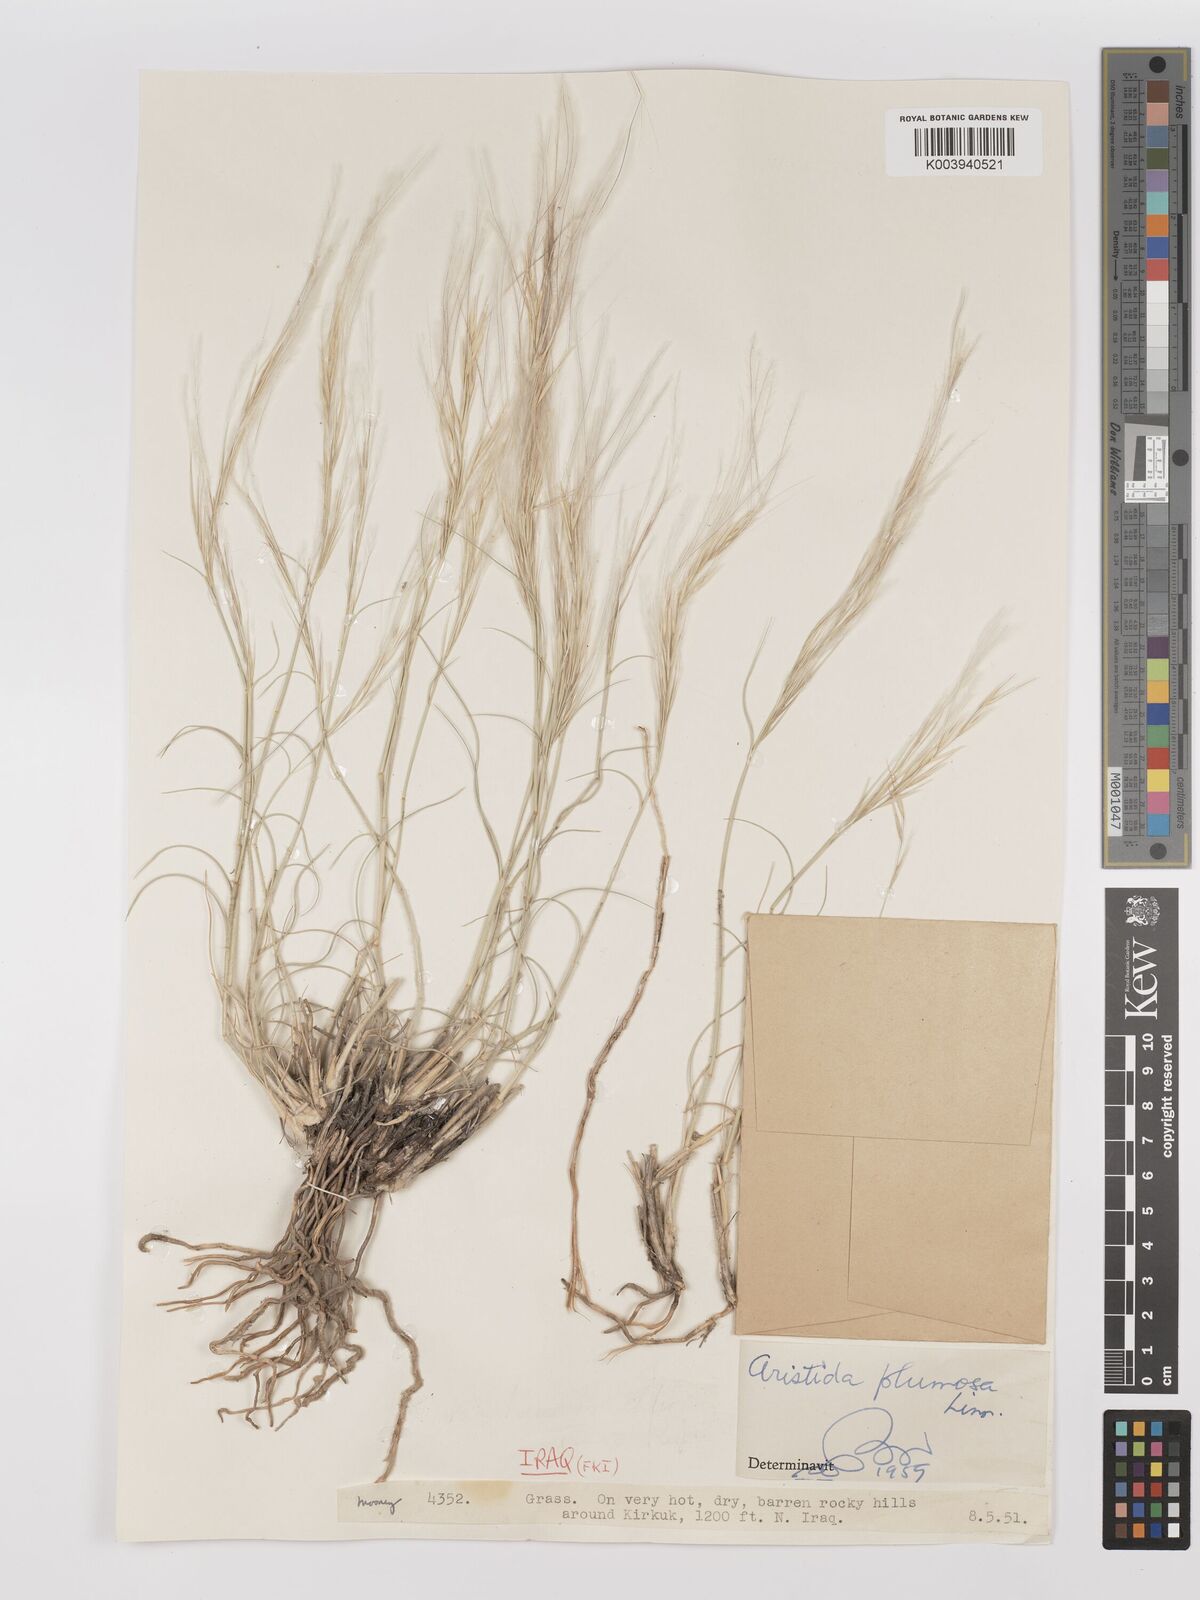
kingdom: Plantae
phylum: Tracheophyta
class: Liliopsida
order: Poales
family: Poaceae
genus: Stipagrostis
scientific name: Stipagrostis plumosa
